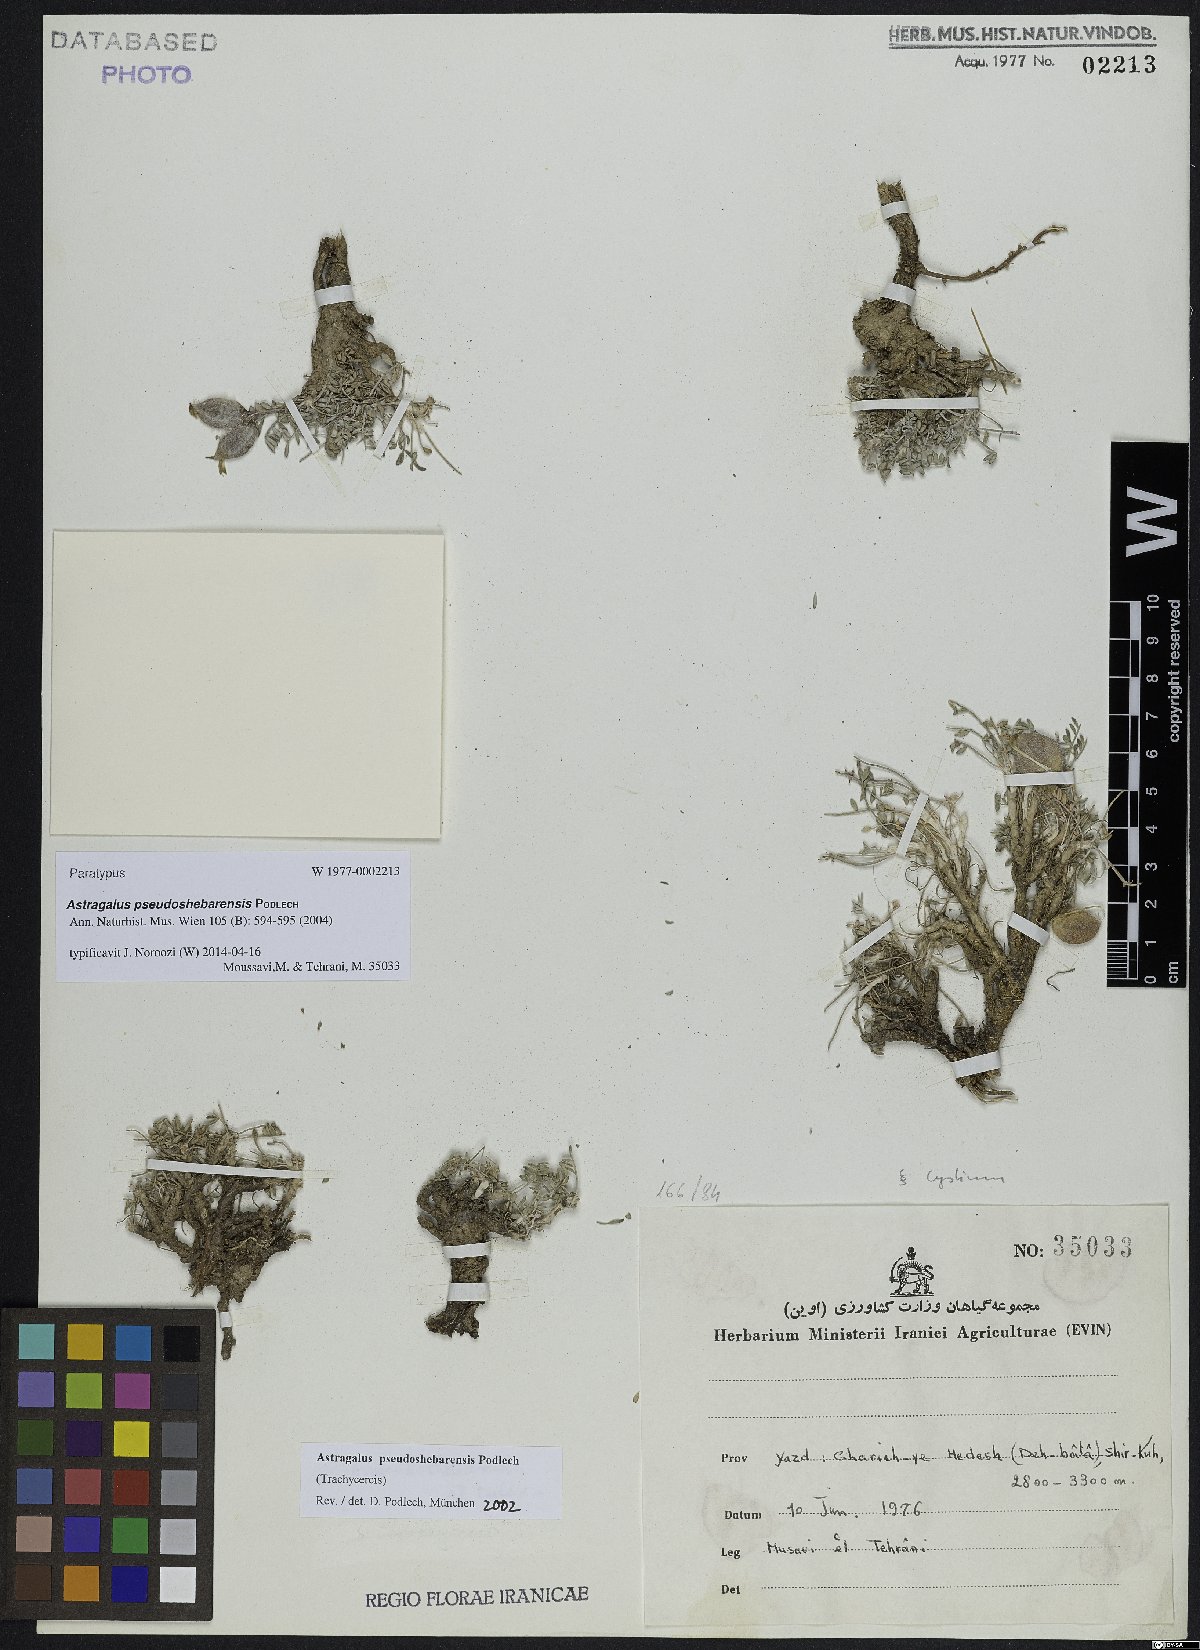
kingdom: Plantae
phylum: Tracheophyta
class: Magnoliopsida
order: Fabales
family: Fabaceae
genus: Astragalus
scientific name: Astragalus pseudoshebarensis
